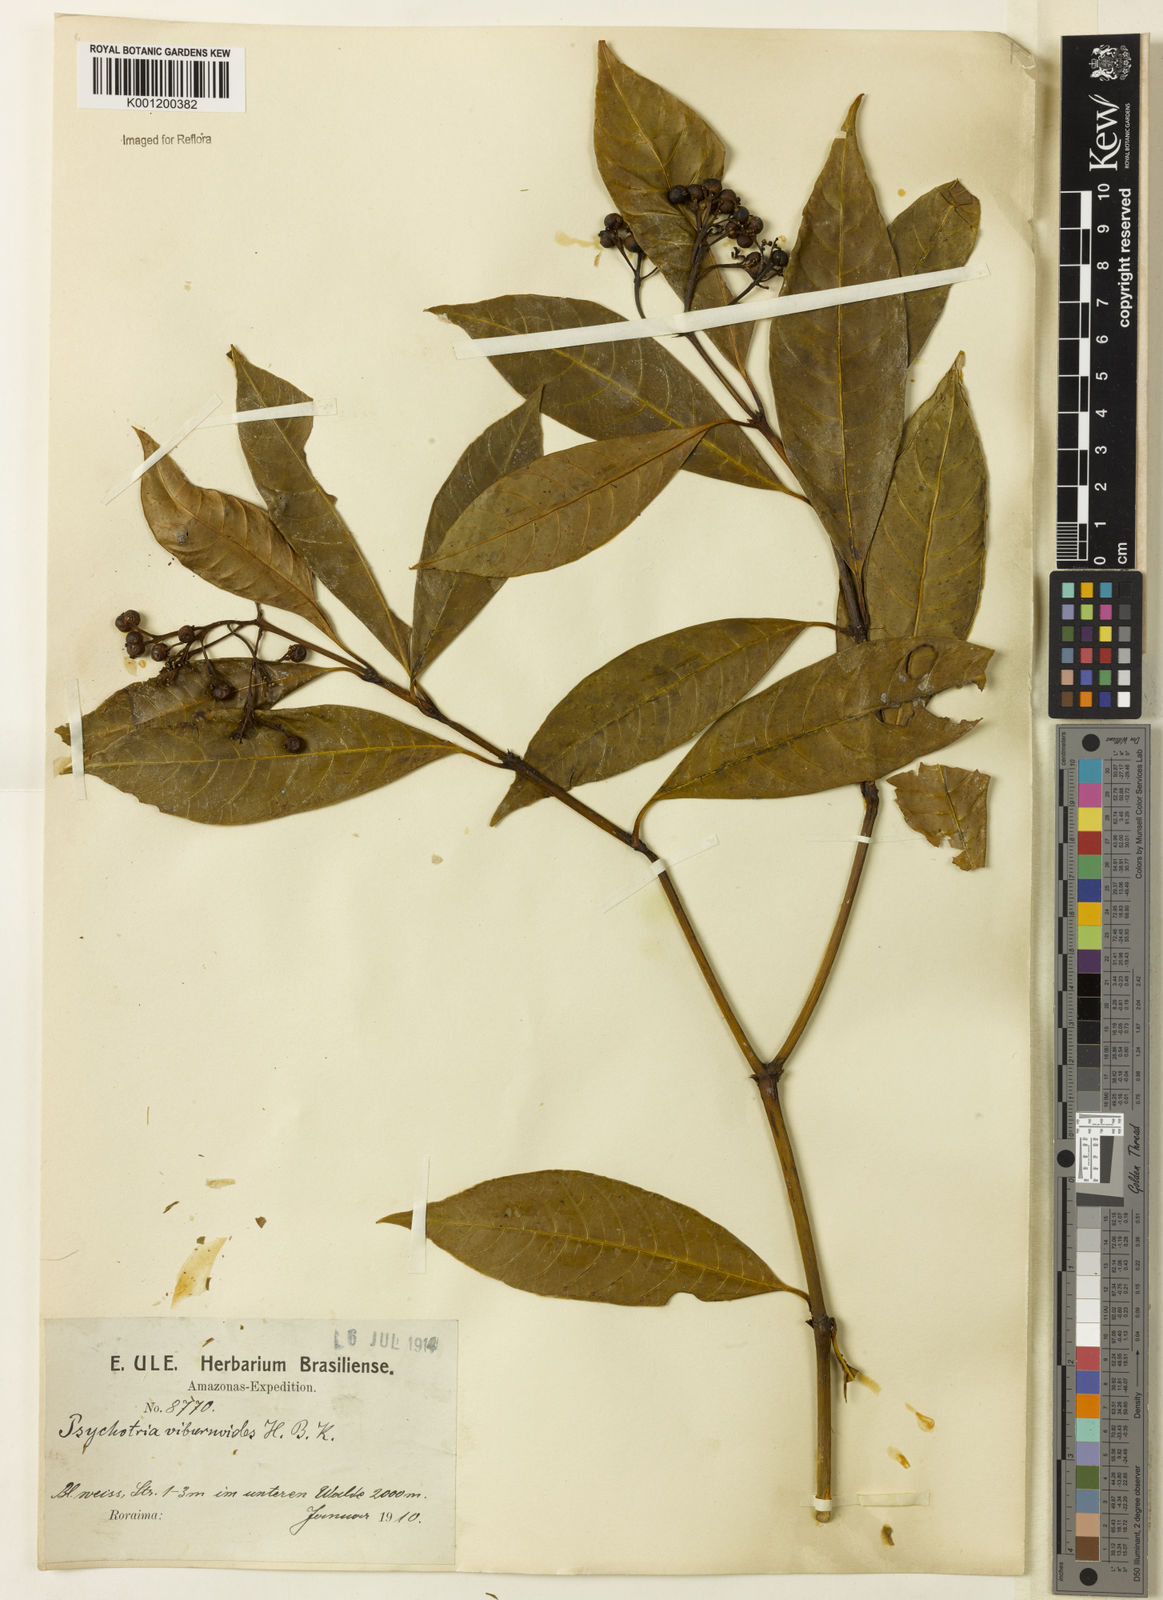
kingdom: Plantae
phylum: Tracheophyta
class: Magnoliopsida
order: Gentianales
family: Rubiaceae
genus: Psychotria
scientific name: Psychotria anceps
